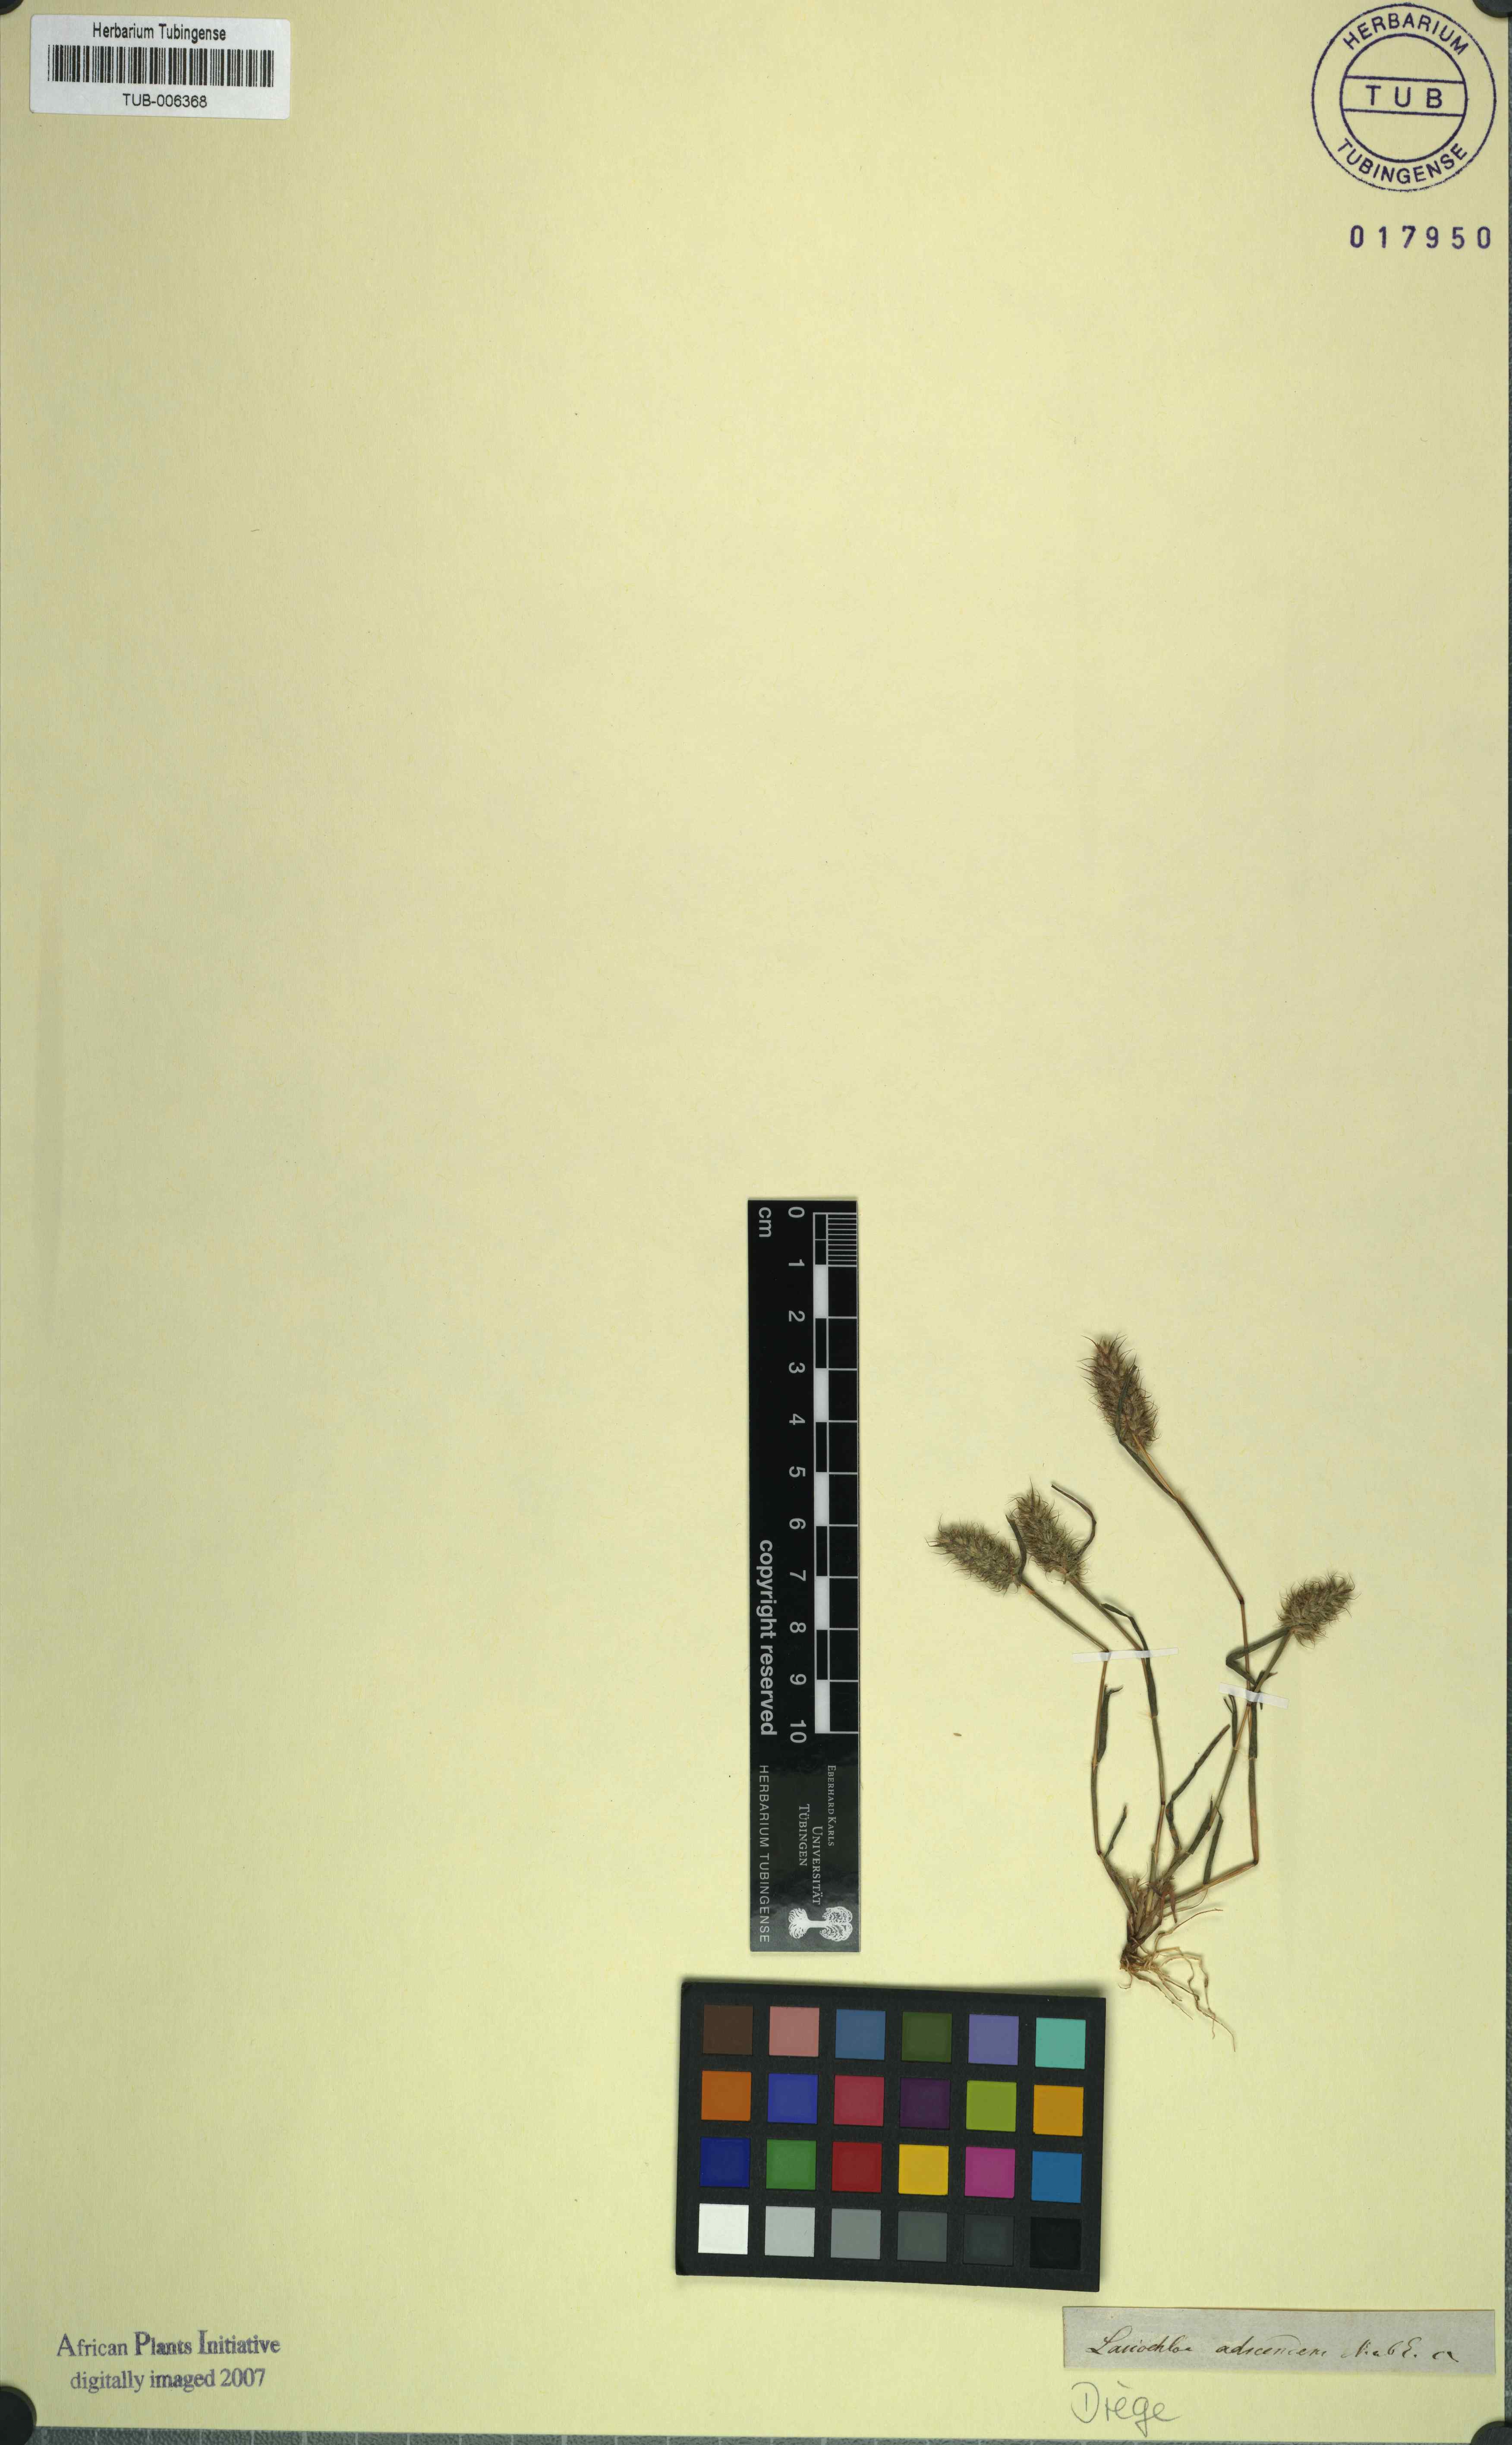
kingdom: Plantae
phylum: Tracheophyta
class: Liliopsida
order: Poales
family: Poaceae
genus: Tribolium
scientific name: Tribolium echinatum
